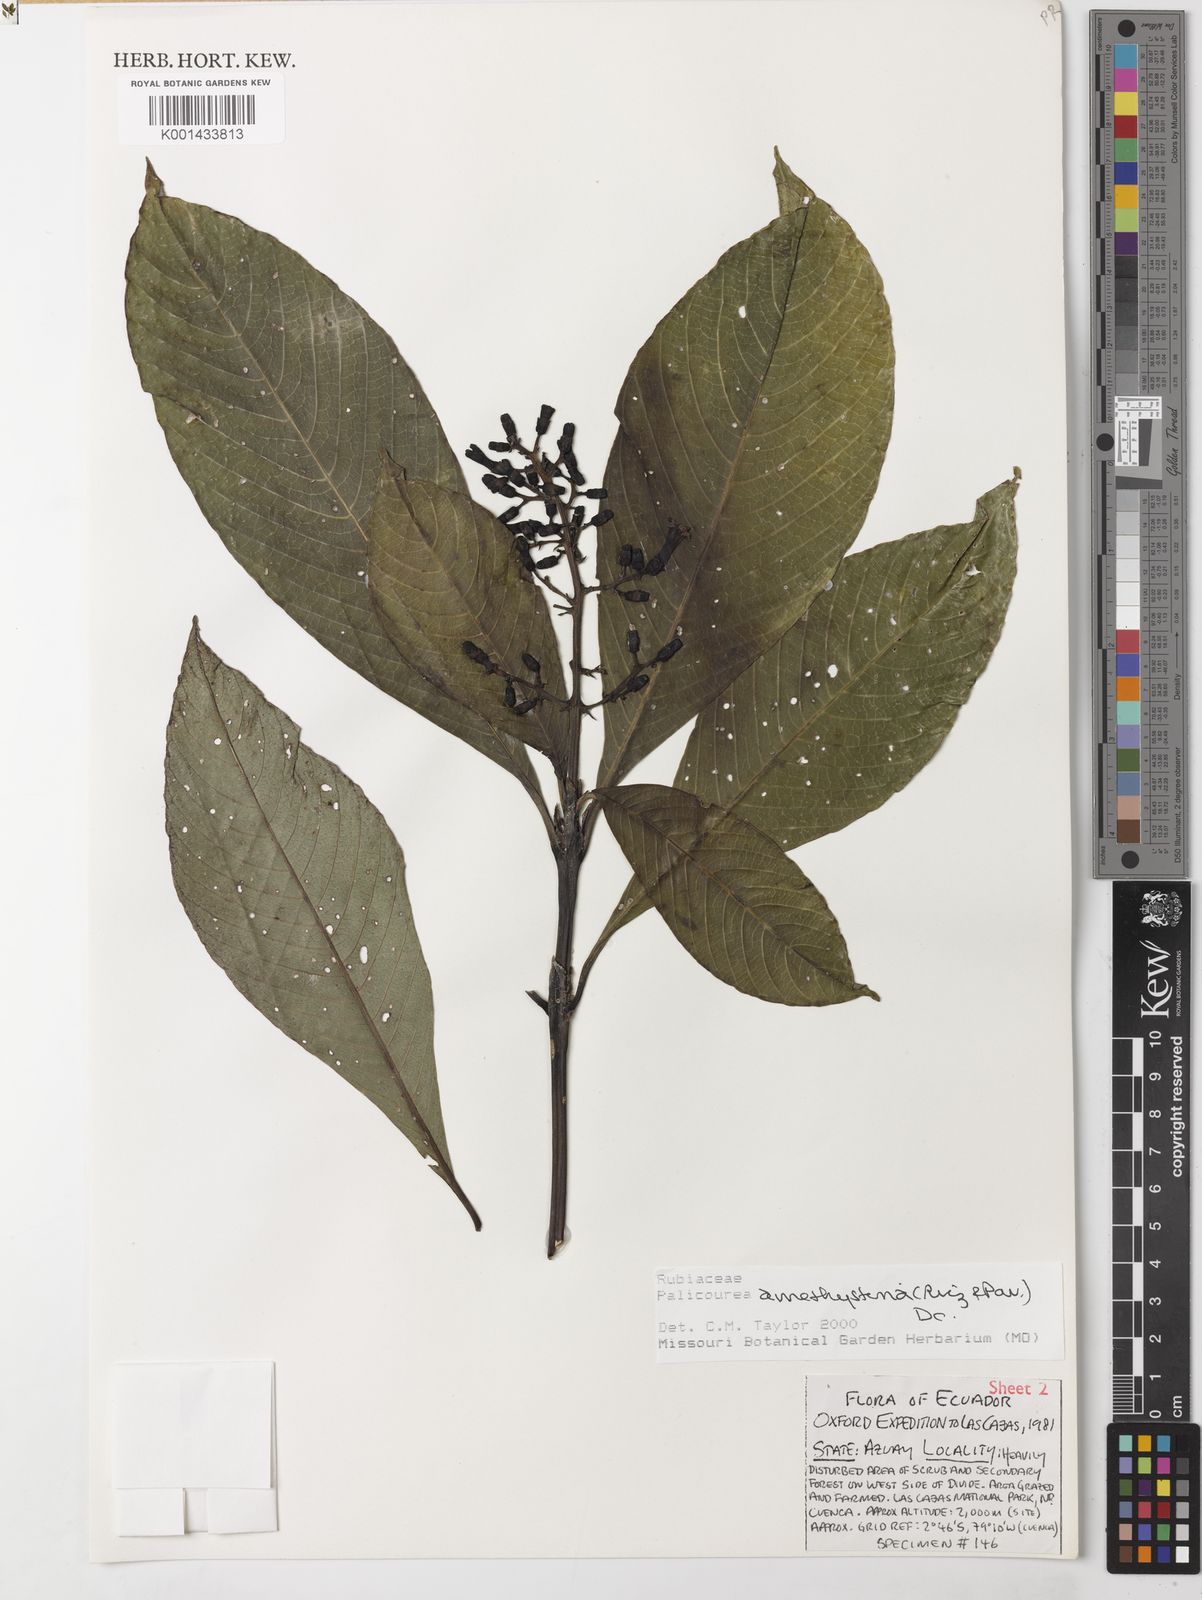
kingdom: Plantae
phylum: Tracheophyta
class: Magnoliopsida
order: Gentianales
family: Rubiaceae
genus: Palicourea
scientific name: Palicourea amethystina
